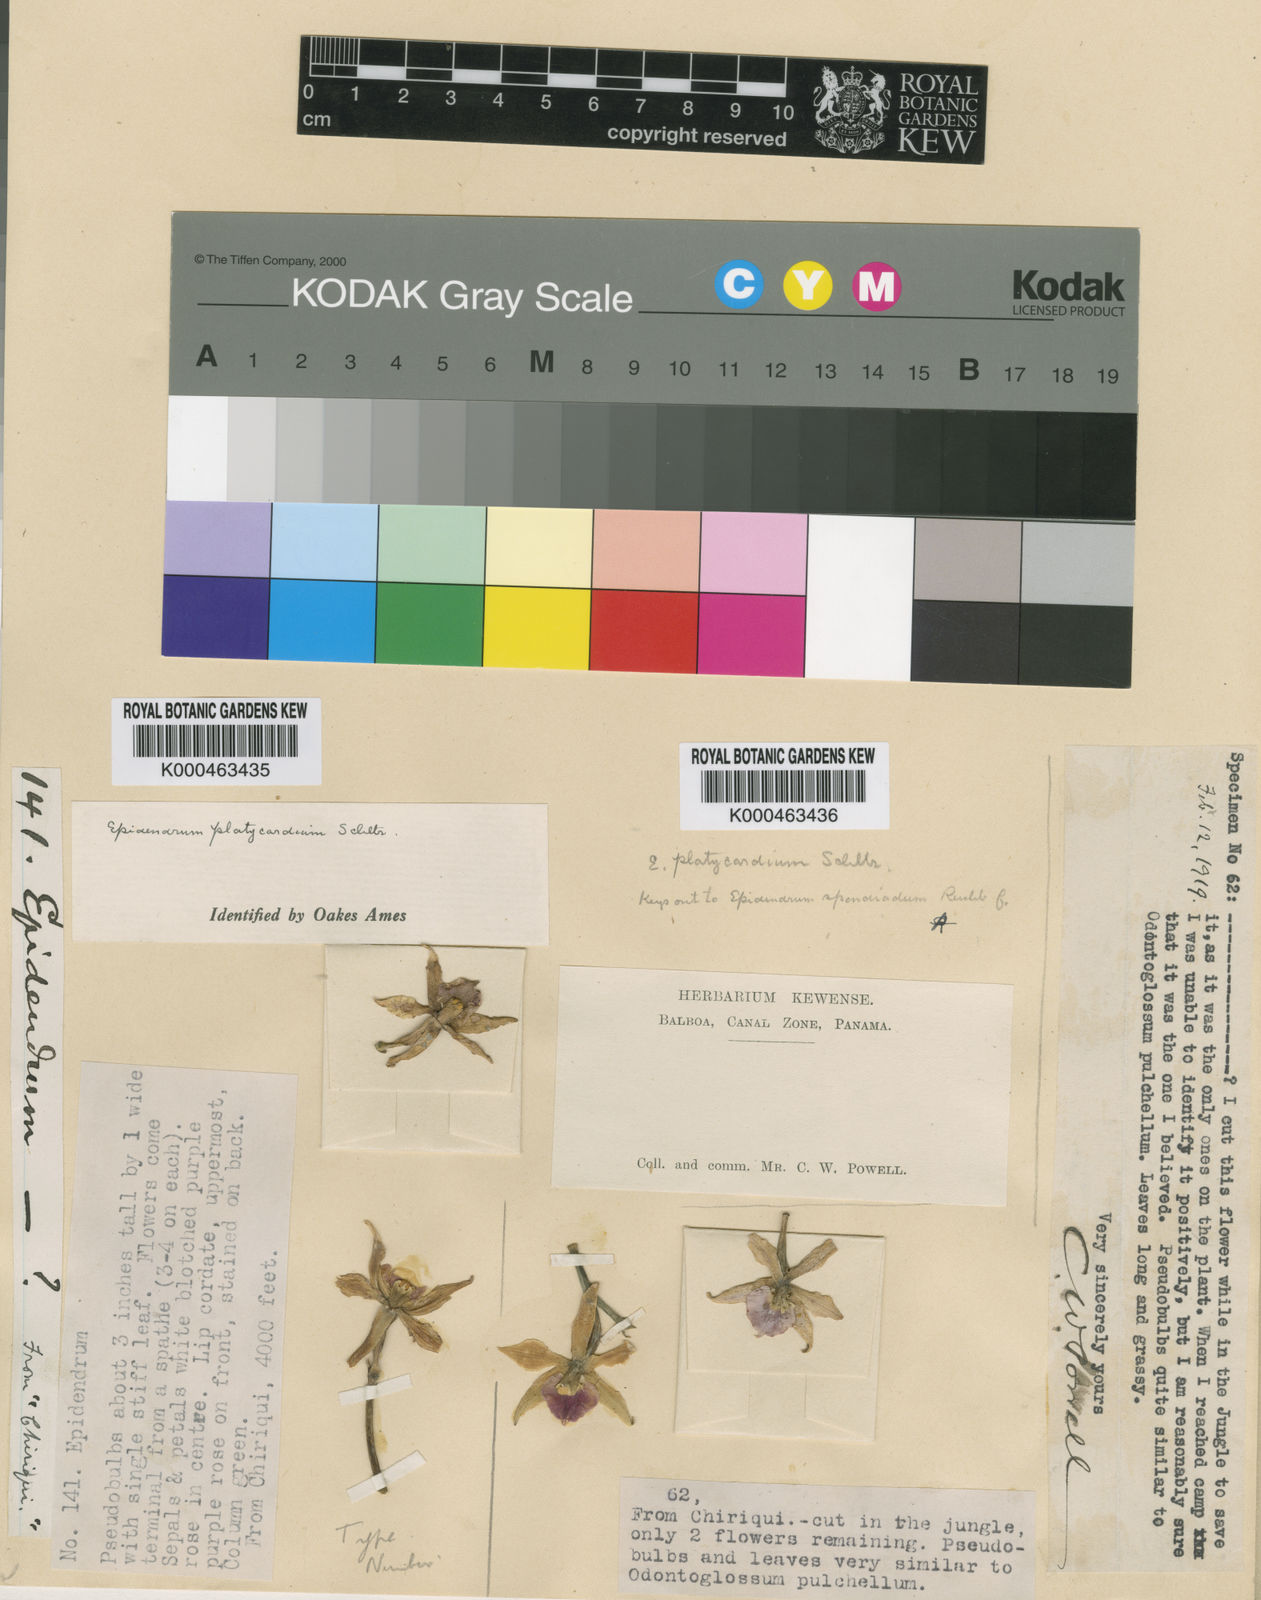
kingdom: Plantae
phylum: Tracheophyta
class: Liliopsida
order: Asparagales
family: Orchidaceae
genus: Prosthechea
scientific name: Prosthechea spondiada
